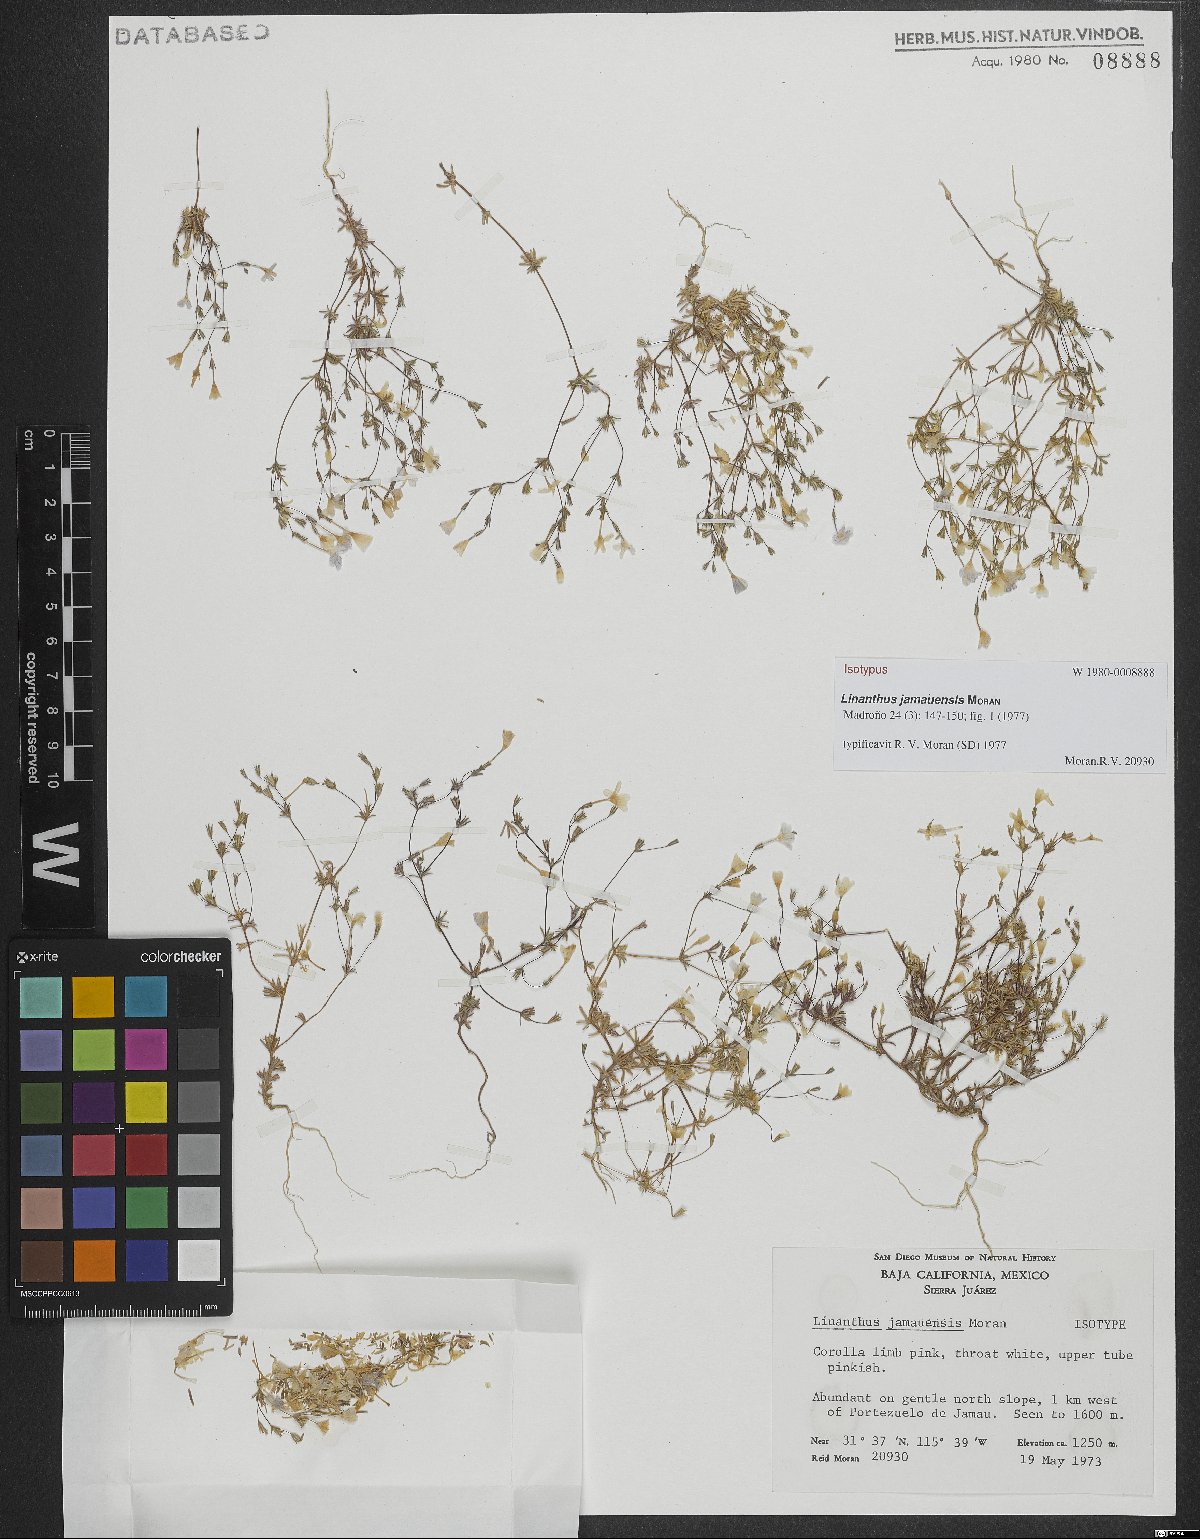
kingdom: Plantae
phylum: Tracheophyta
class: Magnoliopsida
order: Ericales
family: Polemoniaceae
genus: Leptosiphon
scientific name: Leptosiphon jamauensis
